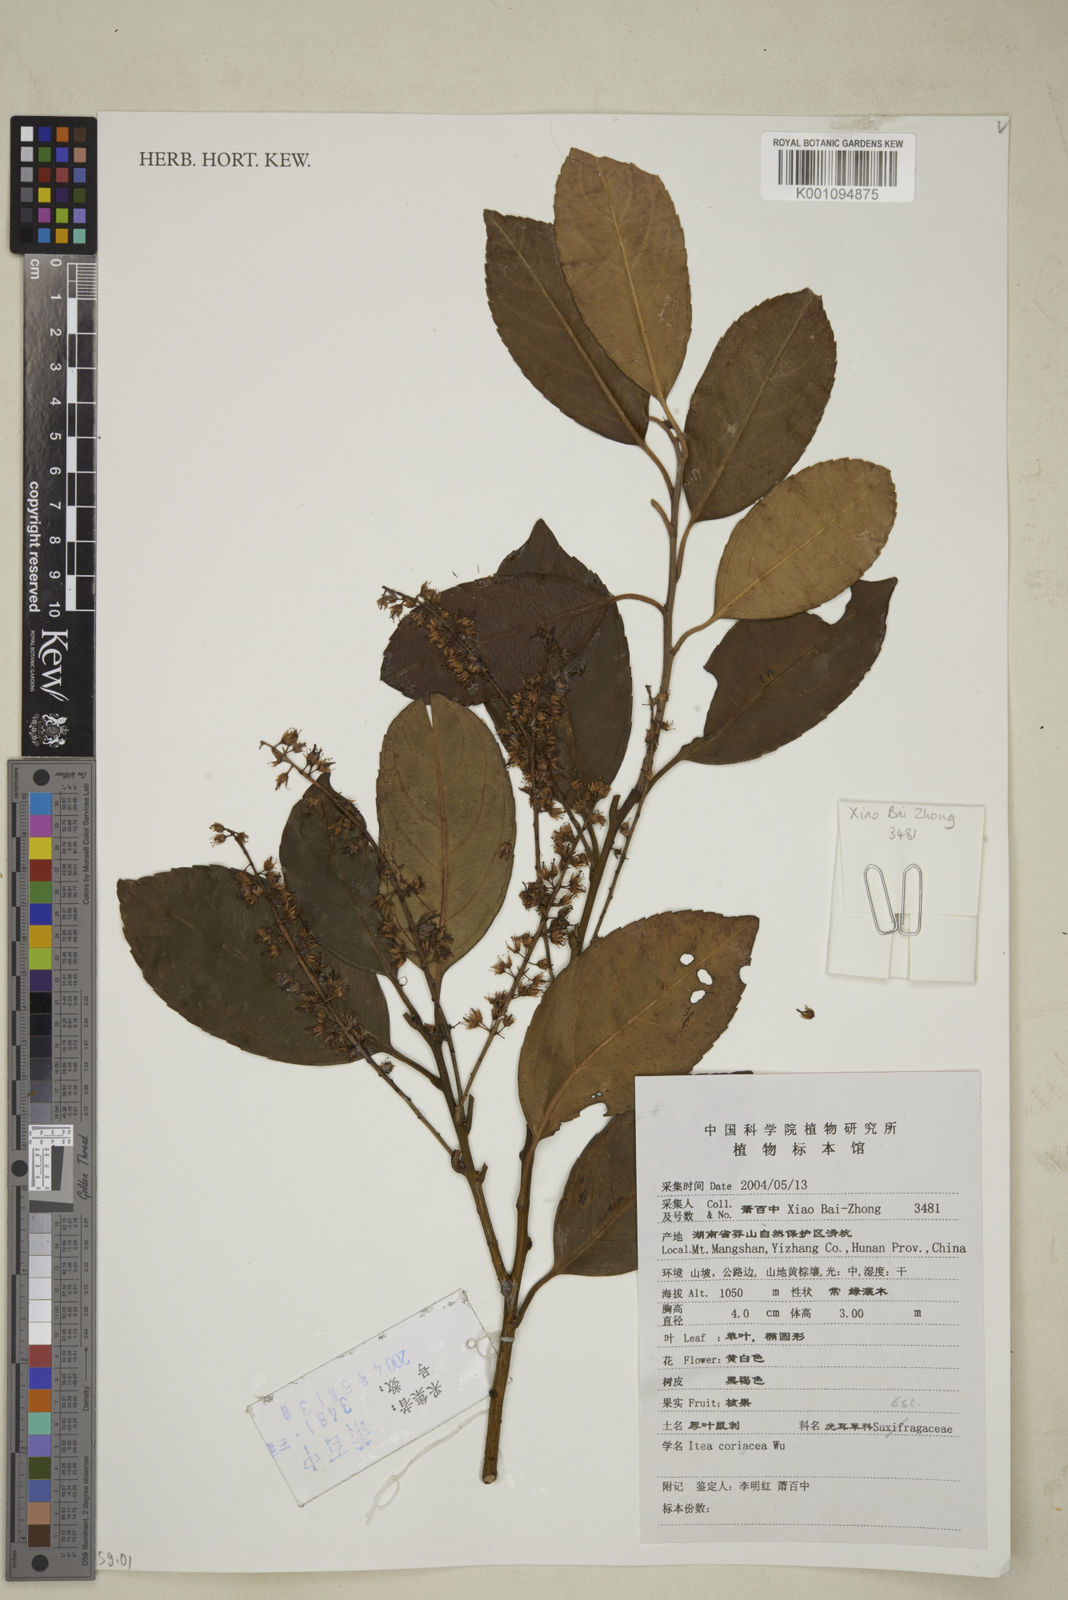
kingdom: Plantae
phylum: Tracheophyta
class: Magnoliopsida
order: Saxifragales
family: Iteaceae
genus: Itea
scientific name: Itea coriacea
